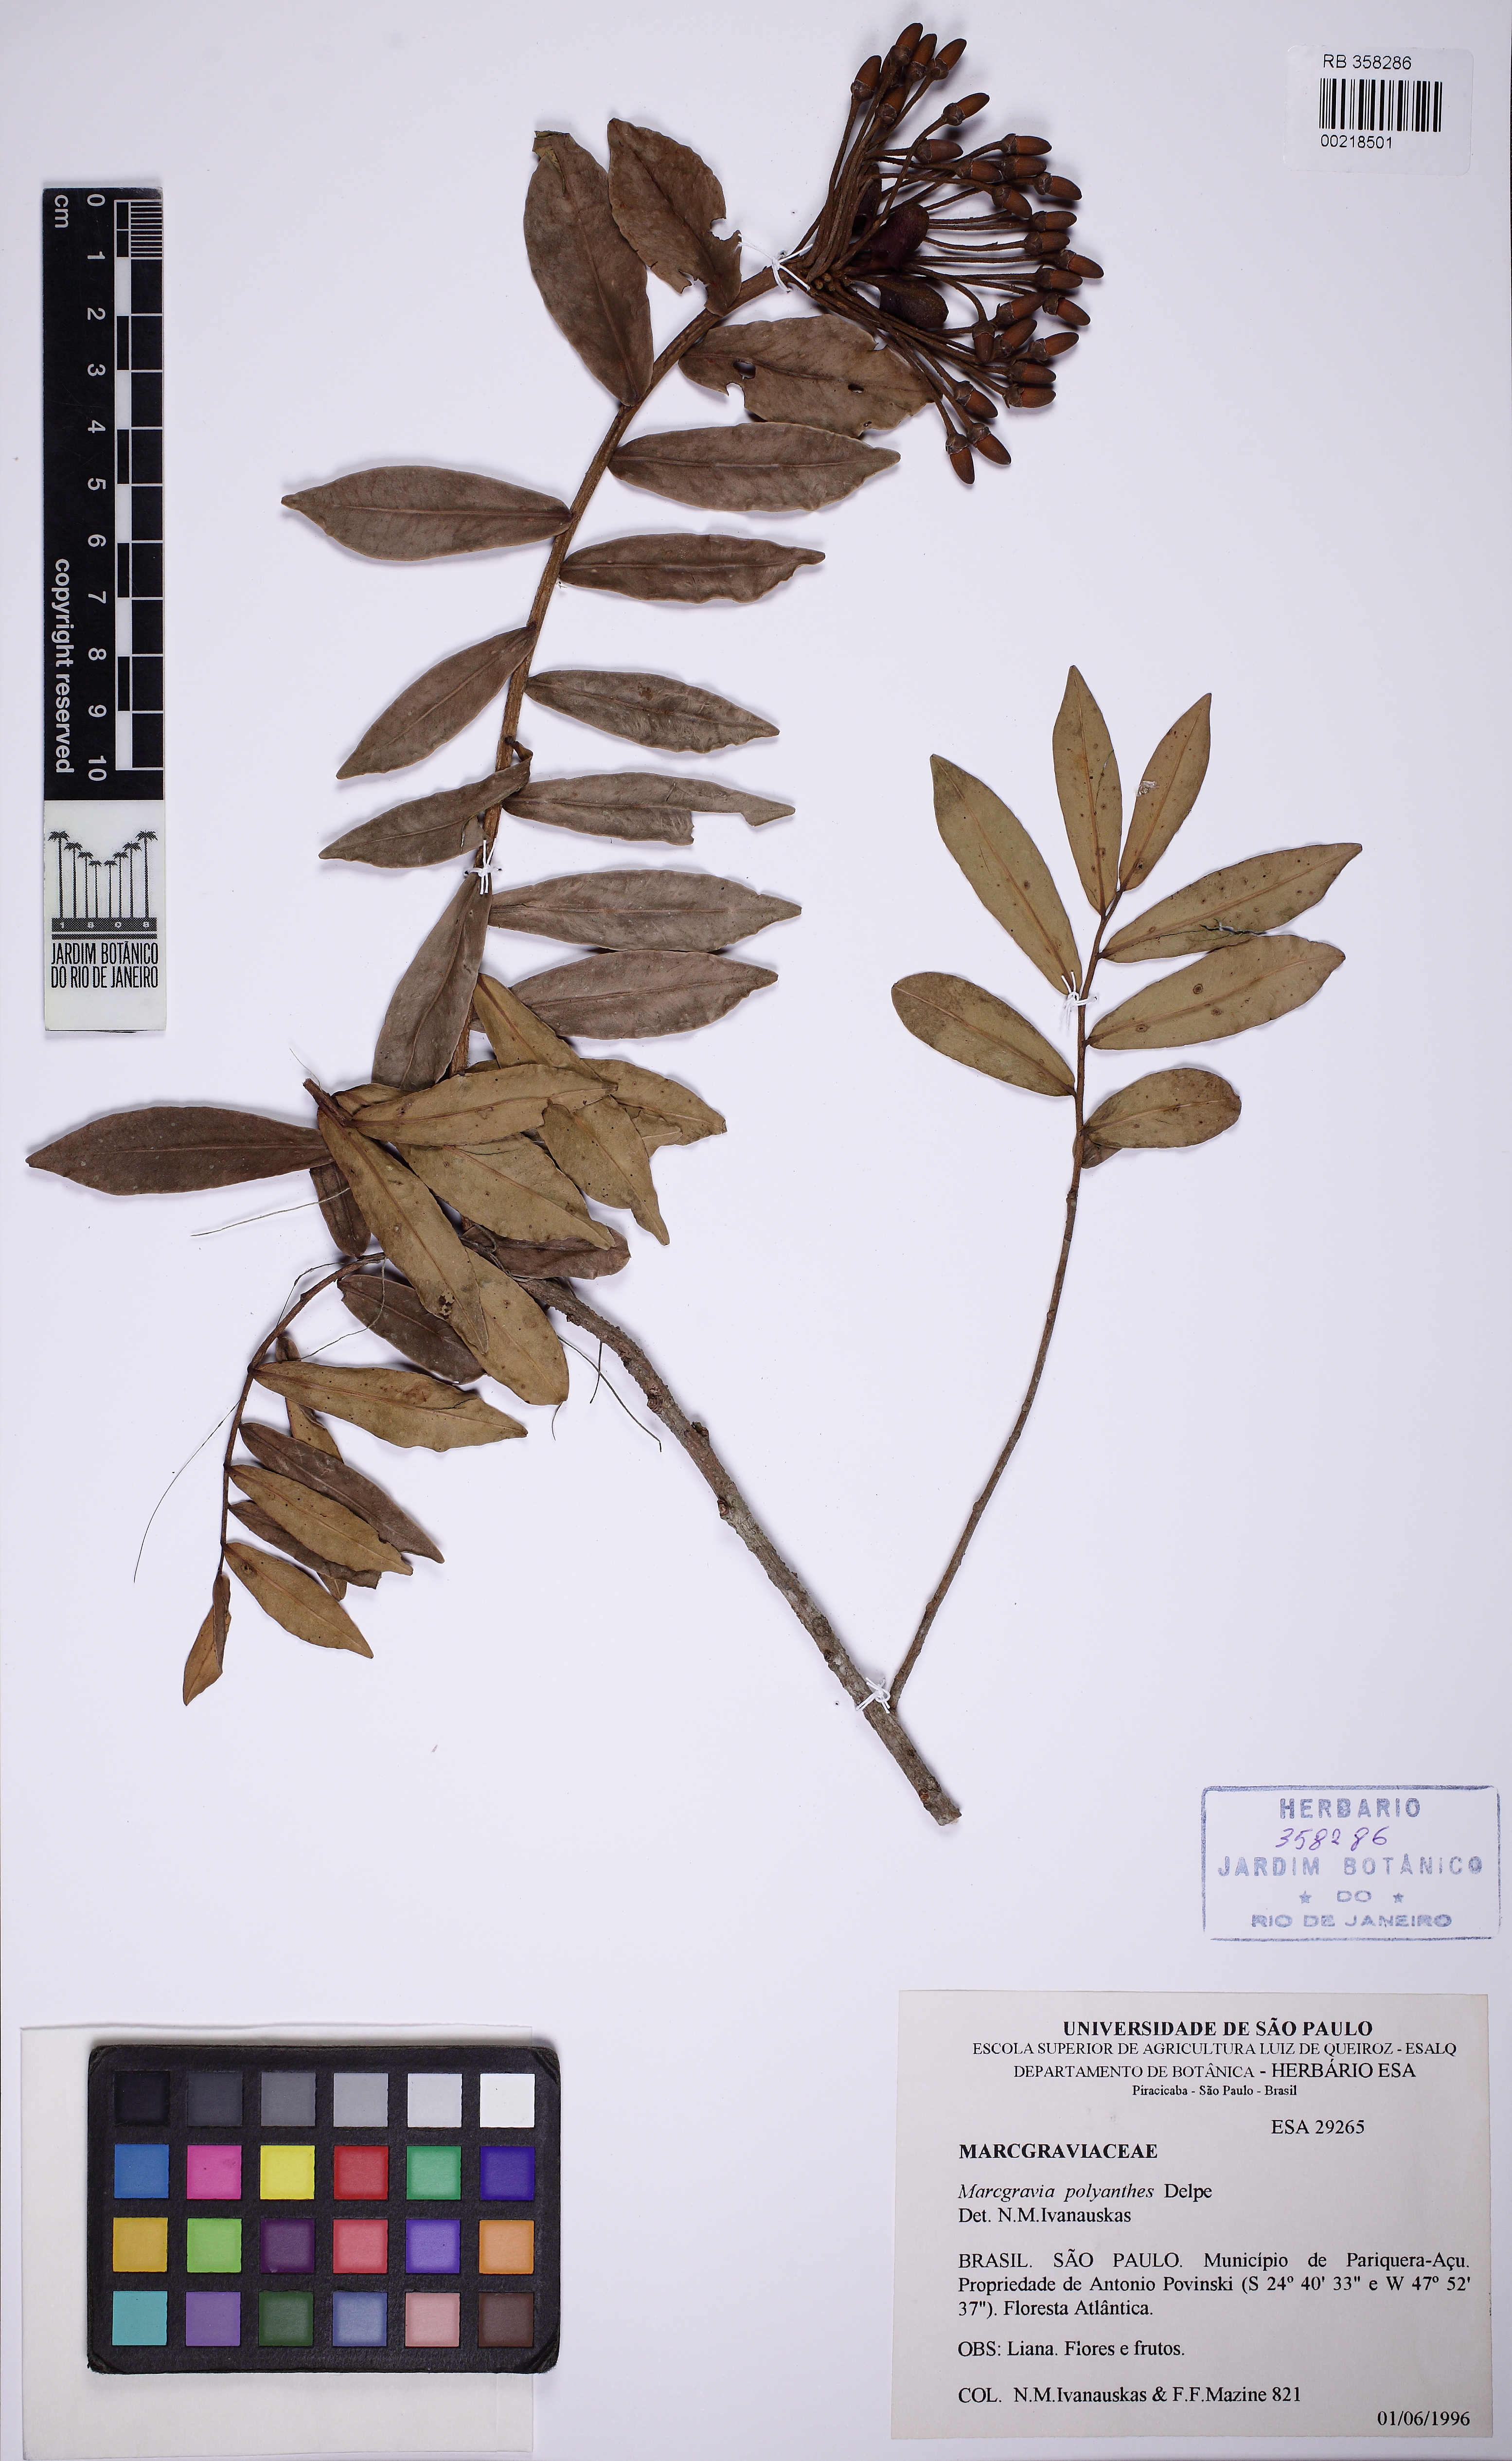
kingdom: Plantae
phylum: Tracheophyta
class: Magnoliopsida
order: Ericales
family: Marcgraviaceae
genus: Marcgravia
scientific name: Marcgravia polyantha
